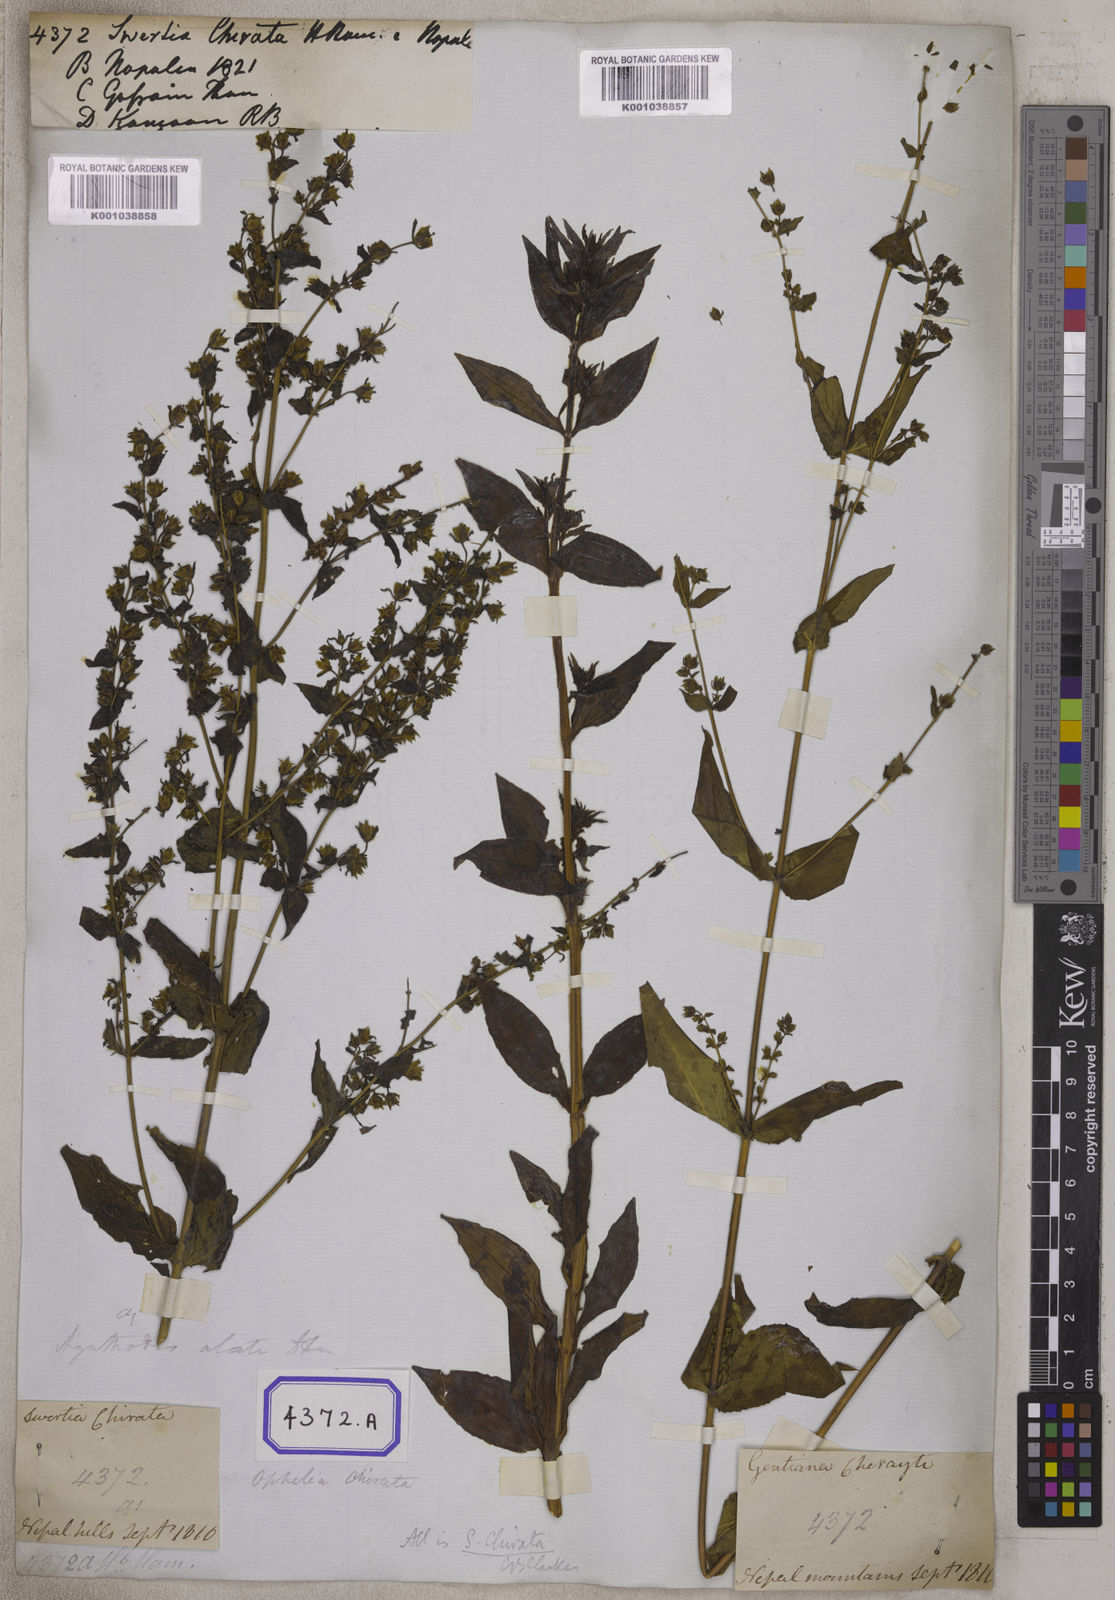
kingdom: Plantae
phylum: Tracheophyta
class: Magnoliopsida
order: Gentianales
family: Gentianaceae
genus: Swertia
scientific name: Swertia chirayita
